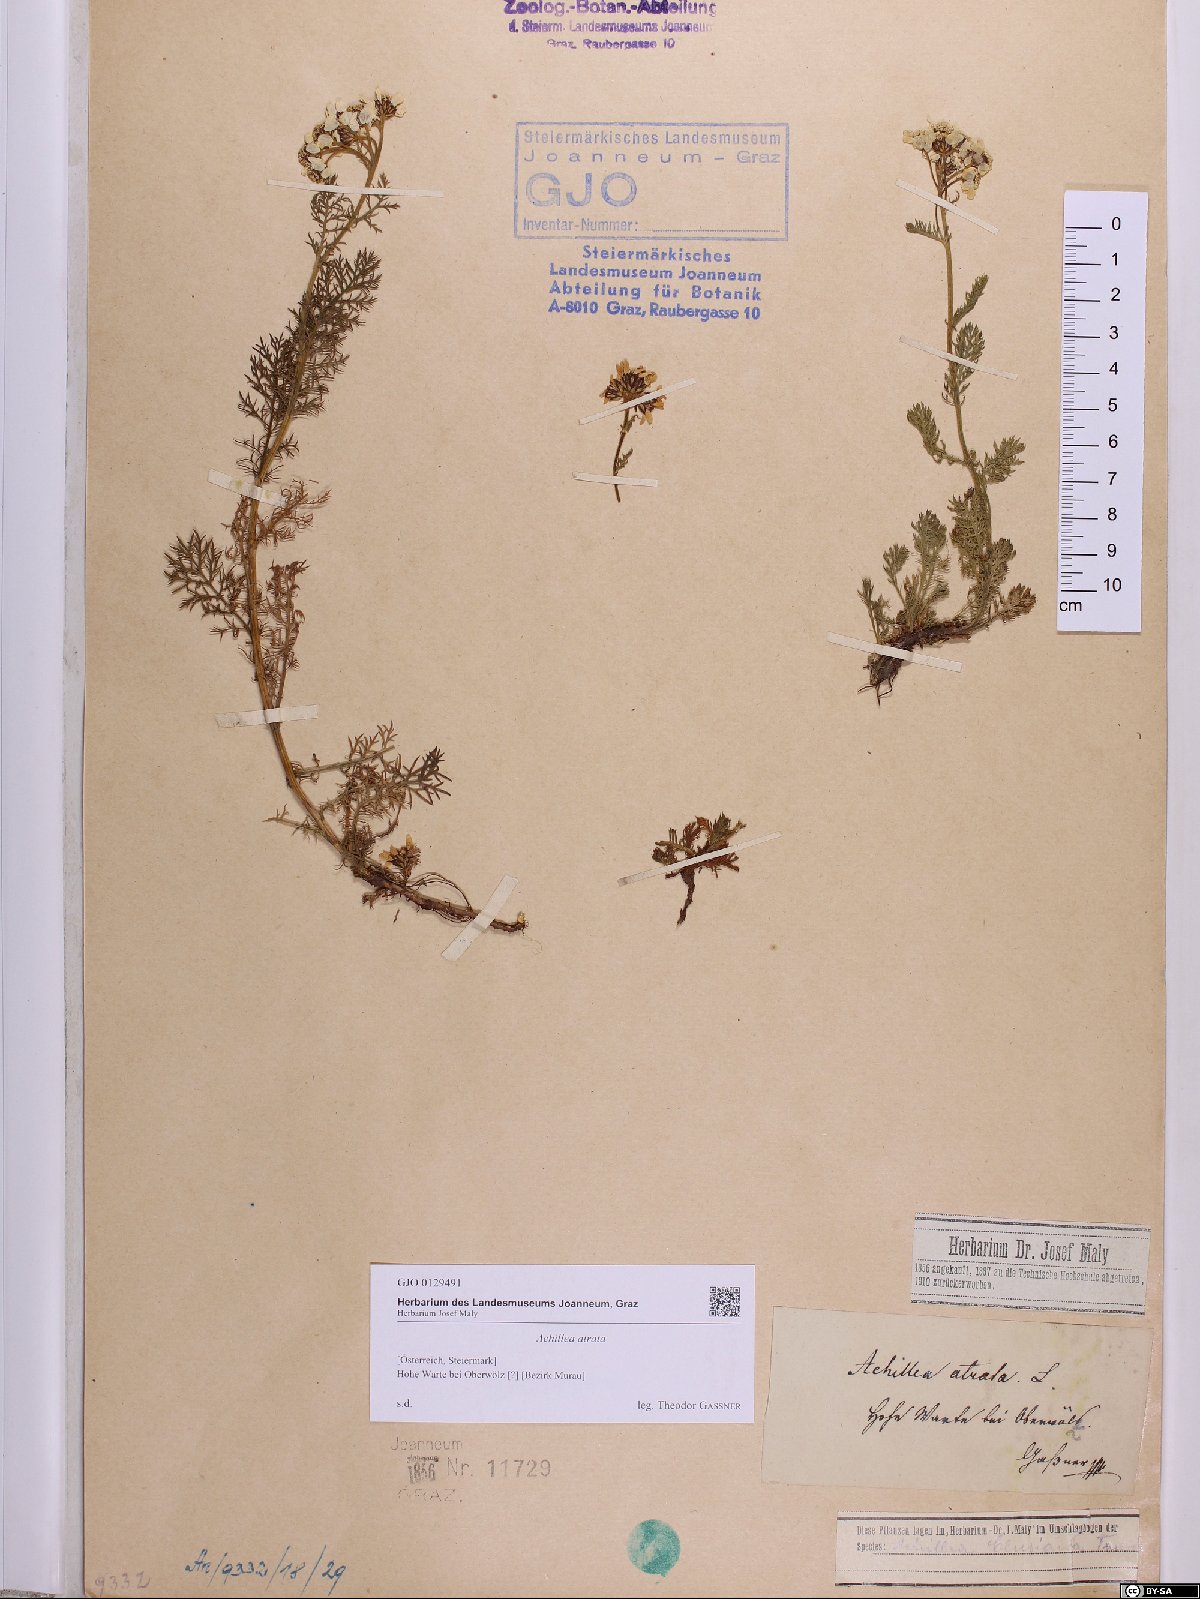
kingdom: Plantae
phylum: Tracheophyta
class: Magnoliopsida
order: Asterales
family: Asteraceae
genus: Achillea
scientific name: Achillea atrata
